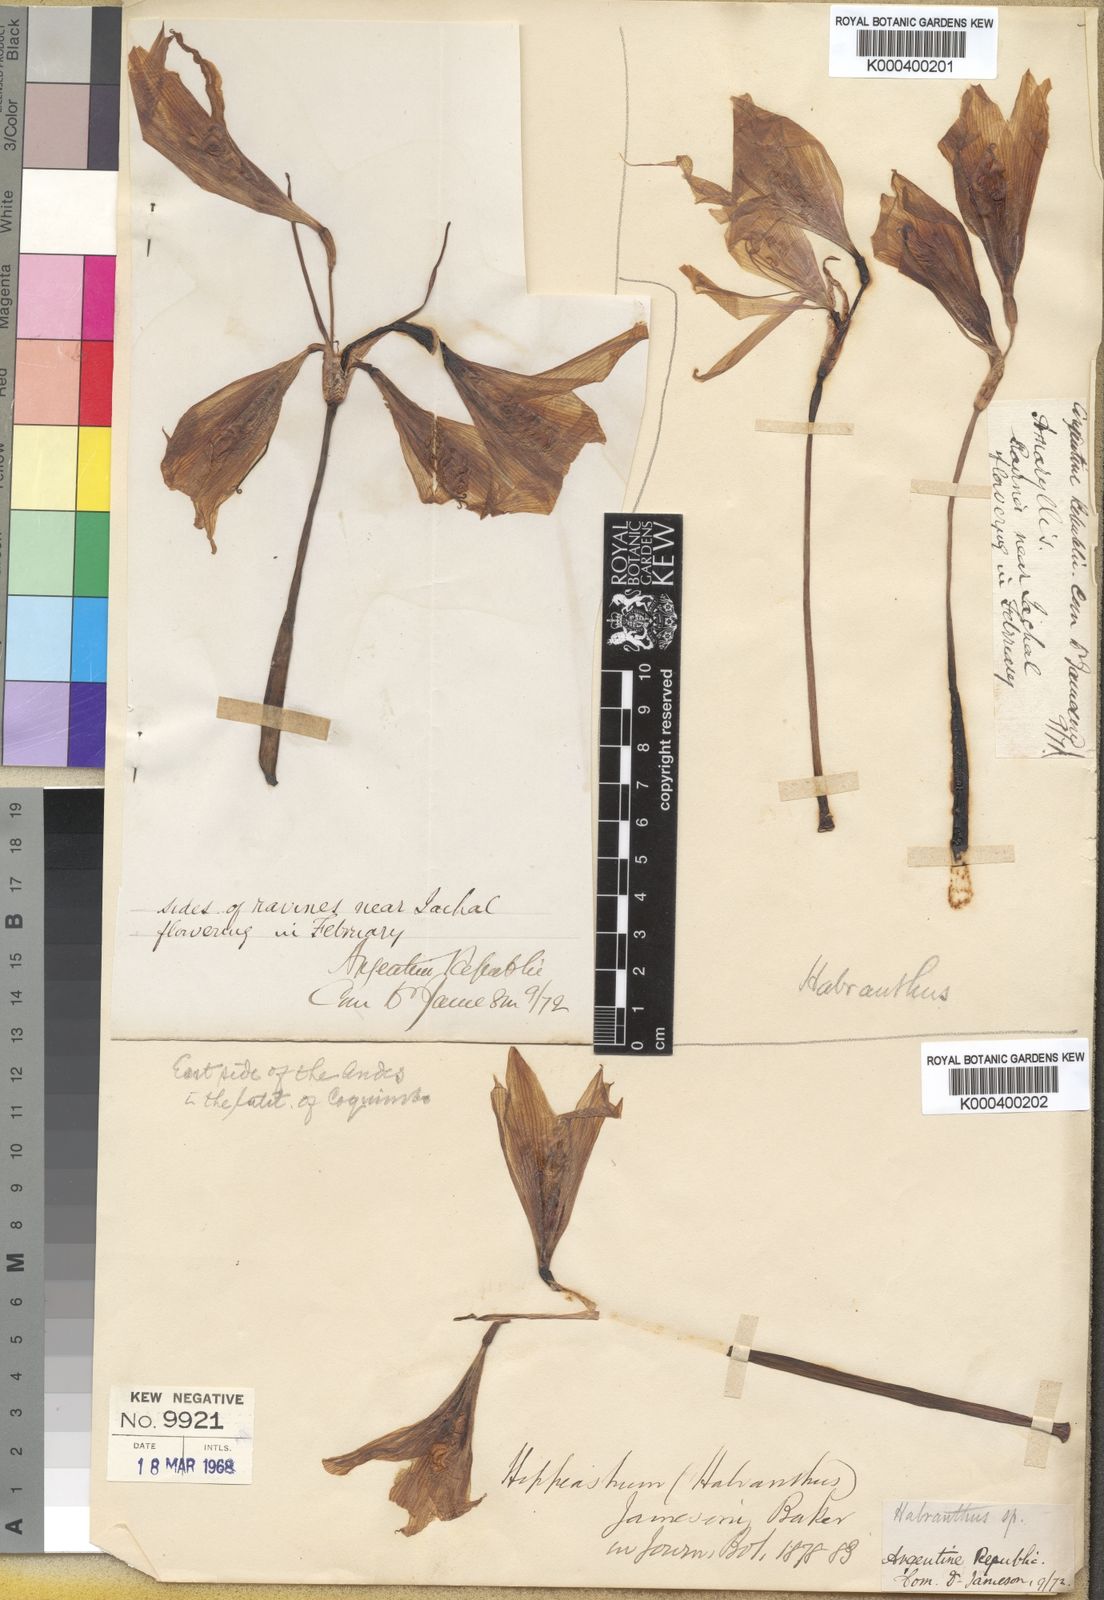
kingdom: Plantae
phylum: Tracheophyta
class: Liliopsida
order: Asparagales
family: Amaryllidaceae
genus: Zephyranthes
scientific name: Zephyranthes jamesonii
